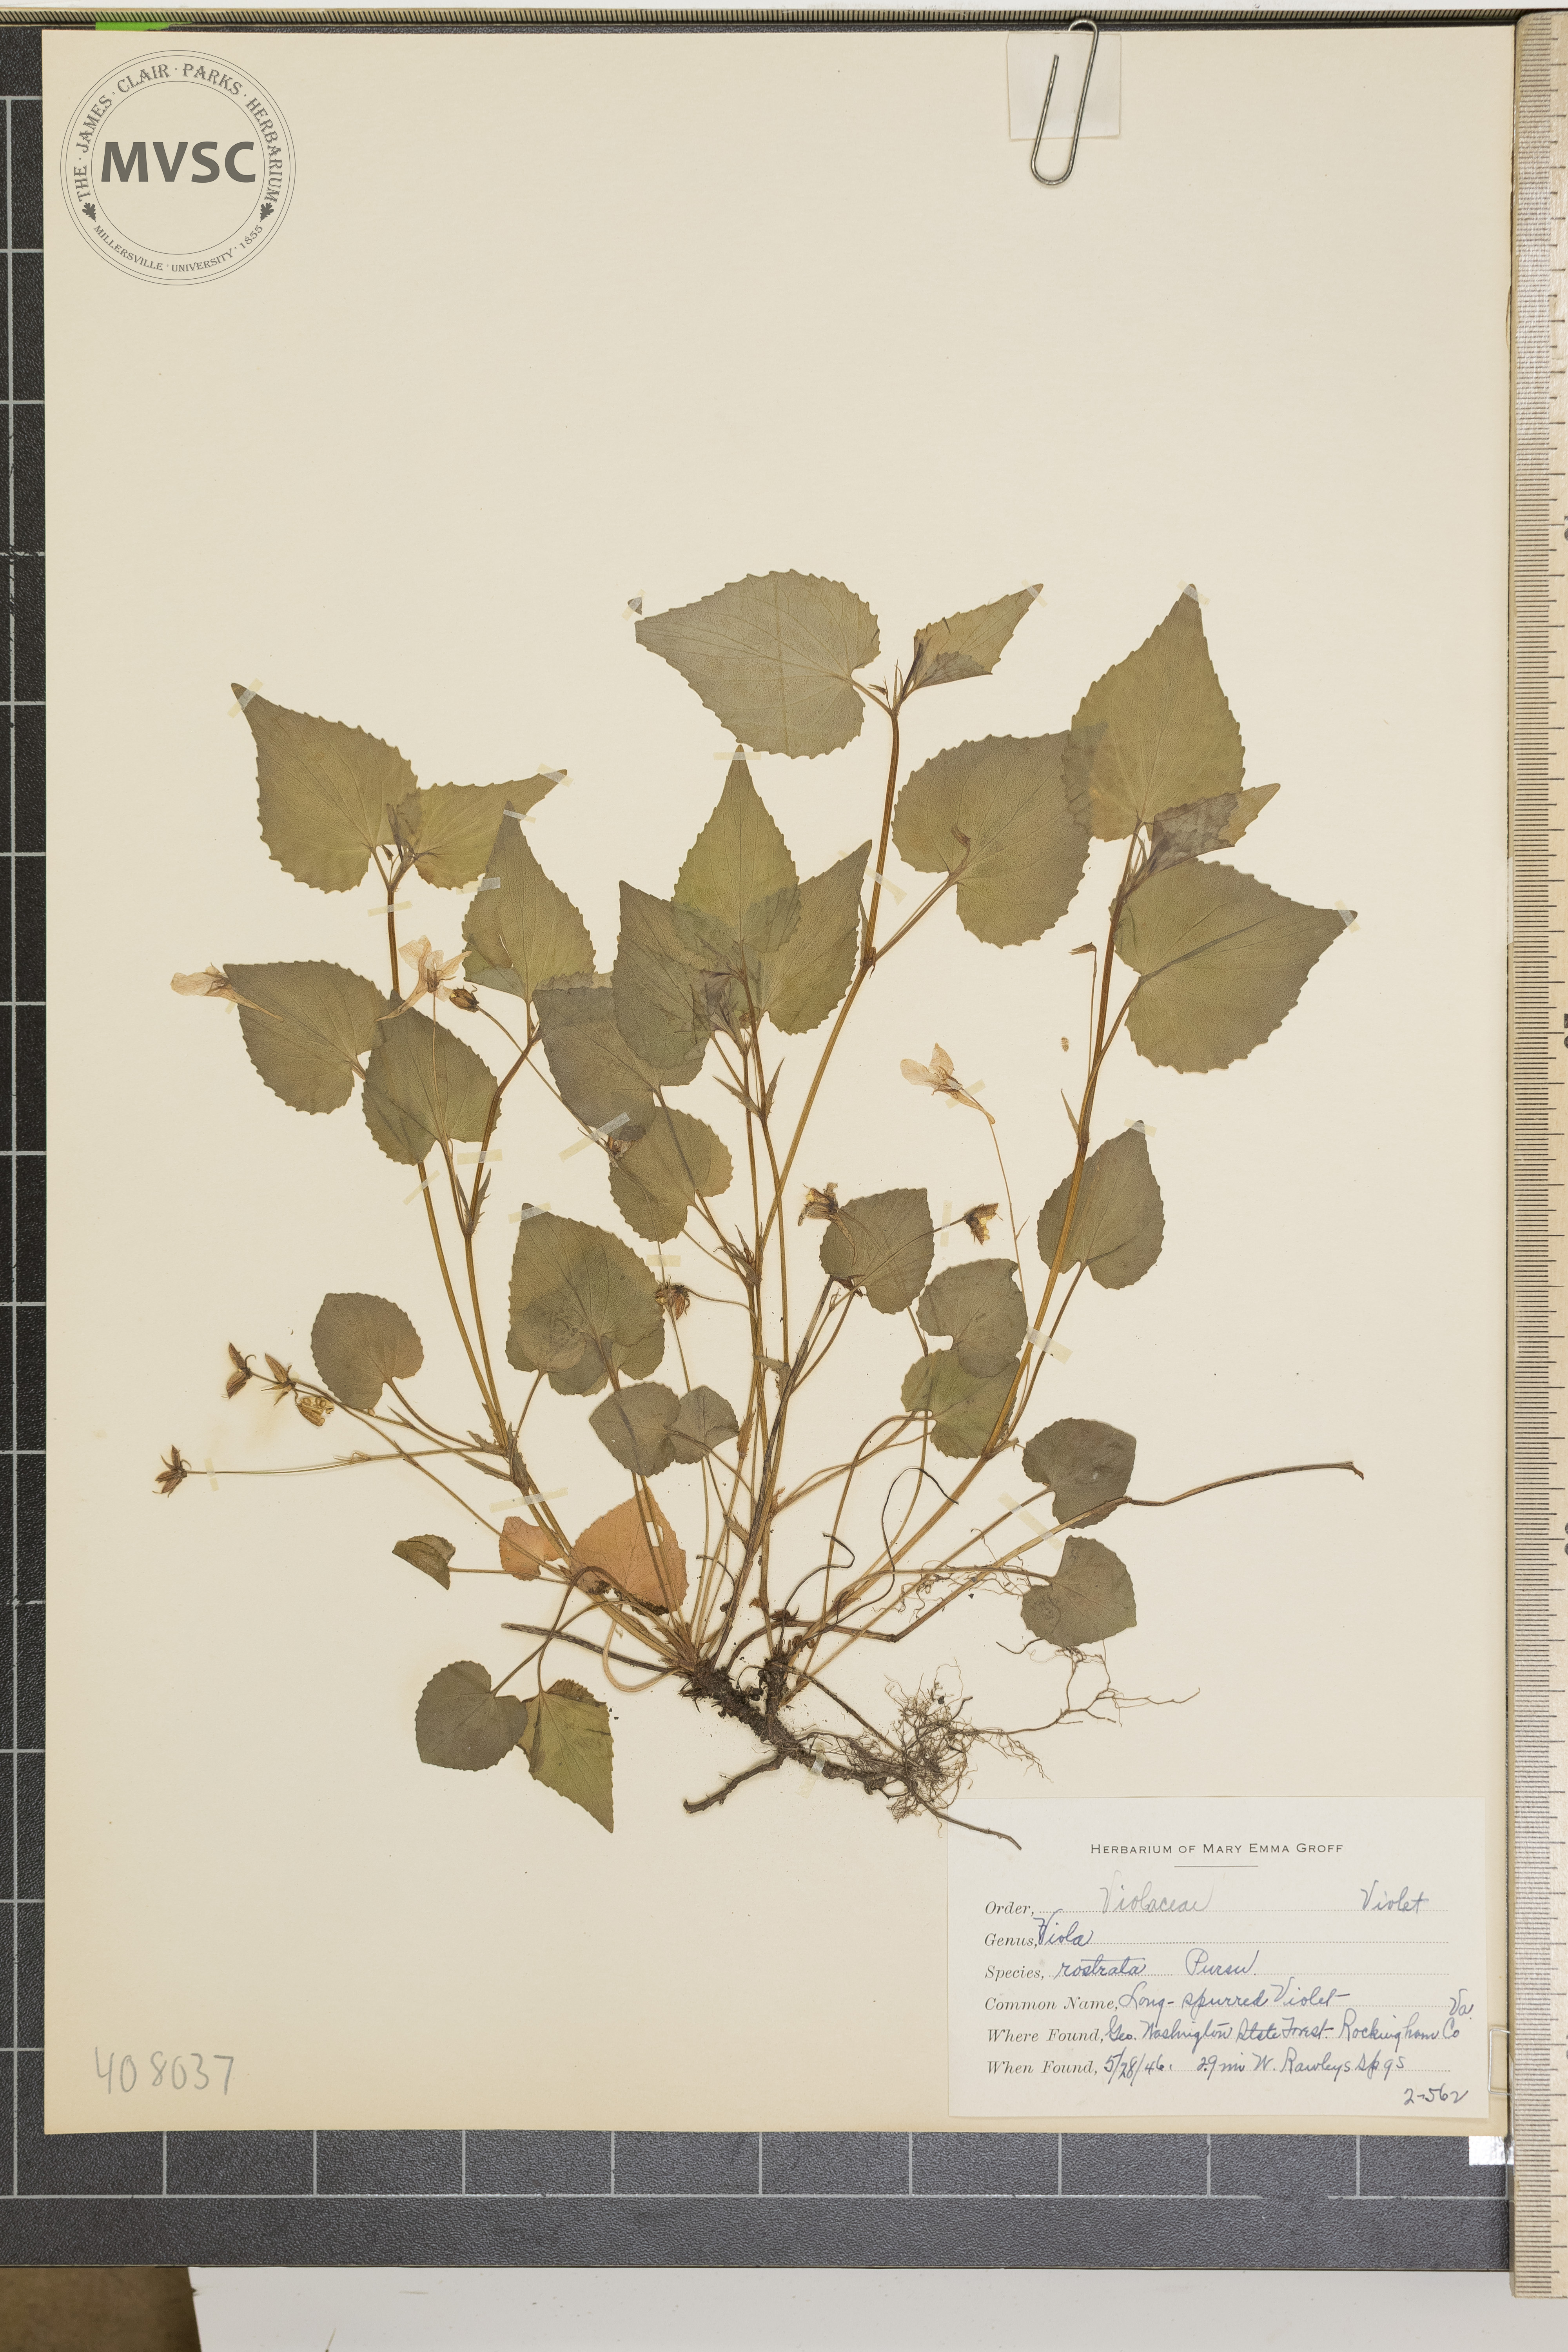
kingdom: Plantae
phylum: Tracheophyta
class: Magnoliopsida
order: Malpighiales
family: Violaceae
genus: Viola
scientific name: Viola rostrata
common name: Long-spurred Violet
